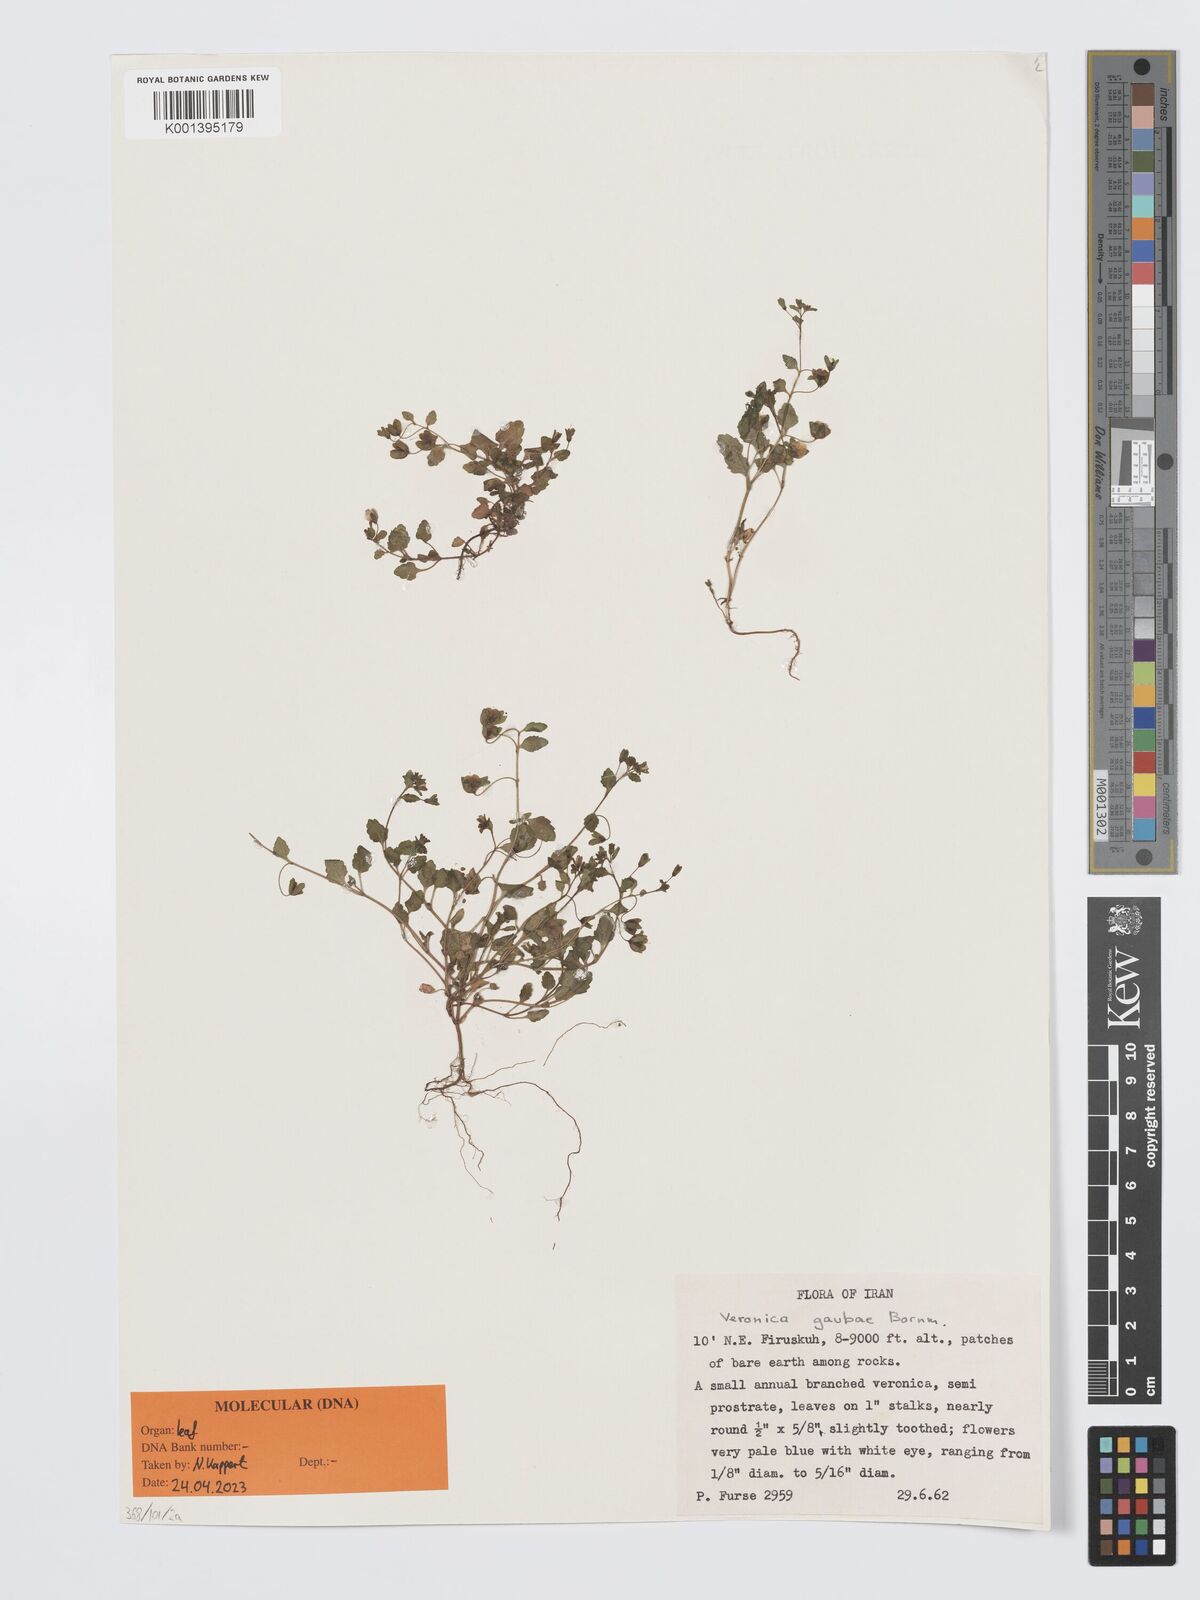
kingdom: Plantae
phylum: Tracheophyta
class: Magnoliopsida
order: Lamiales
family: Plantaginaceae
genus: Veronica
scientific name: Veronica gaubae
